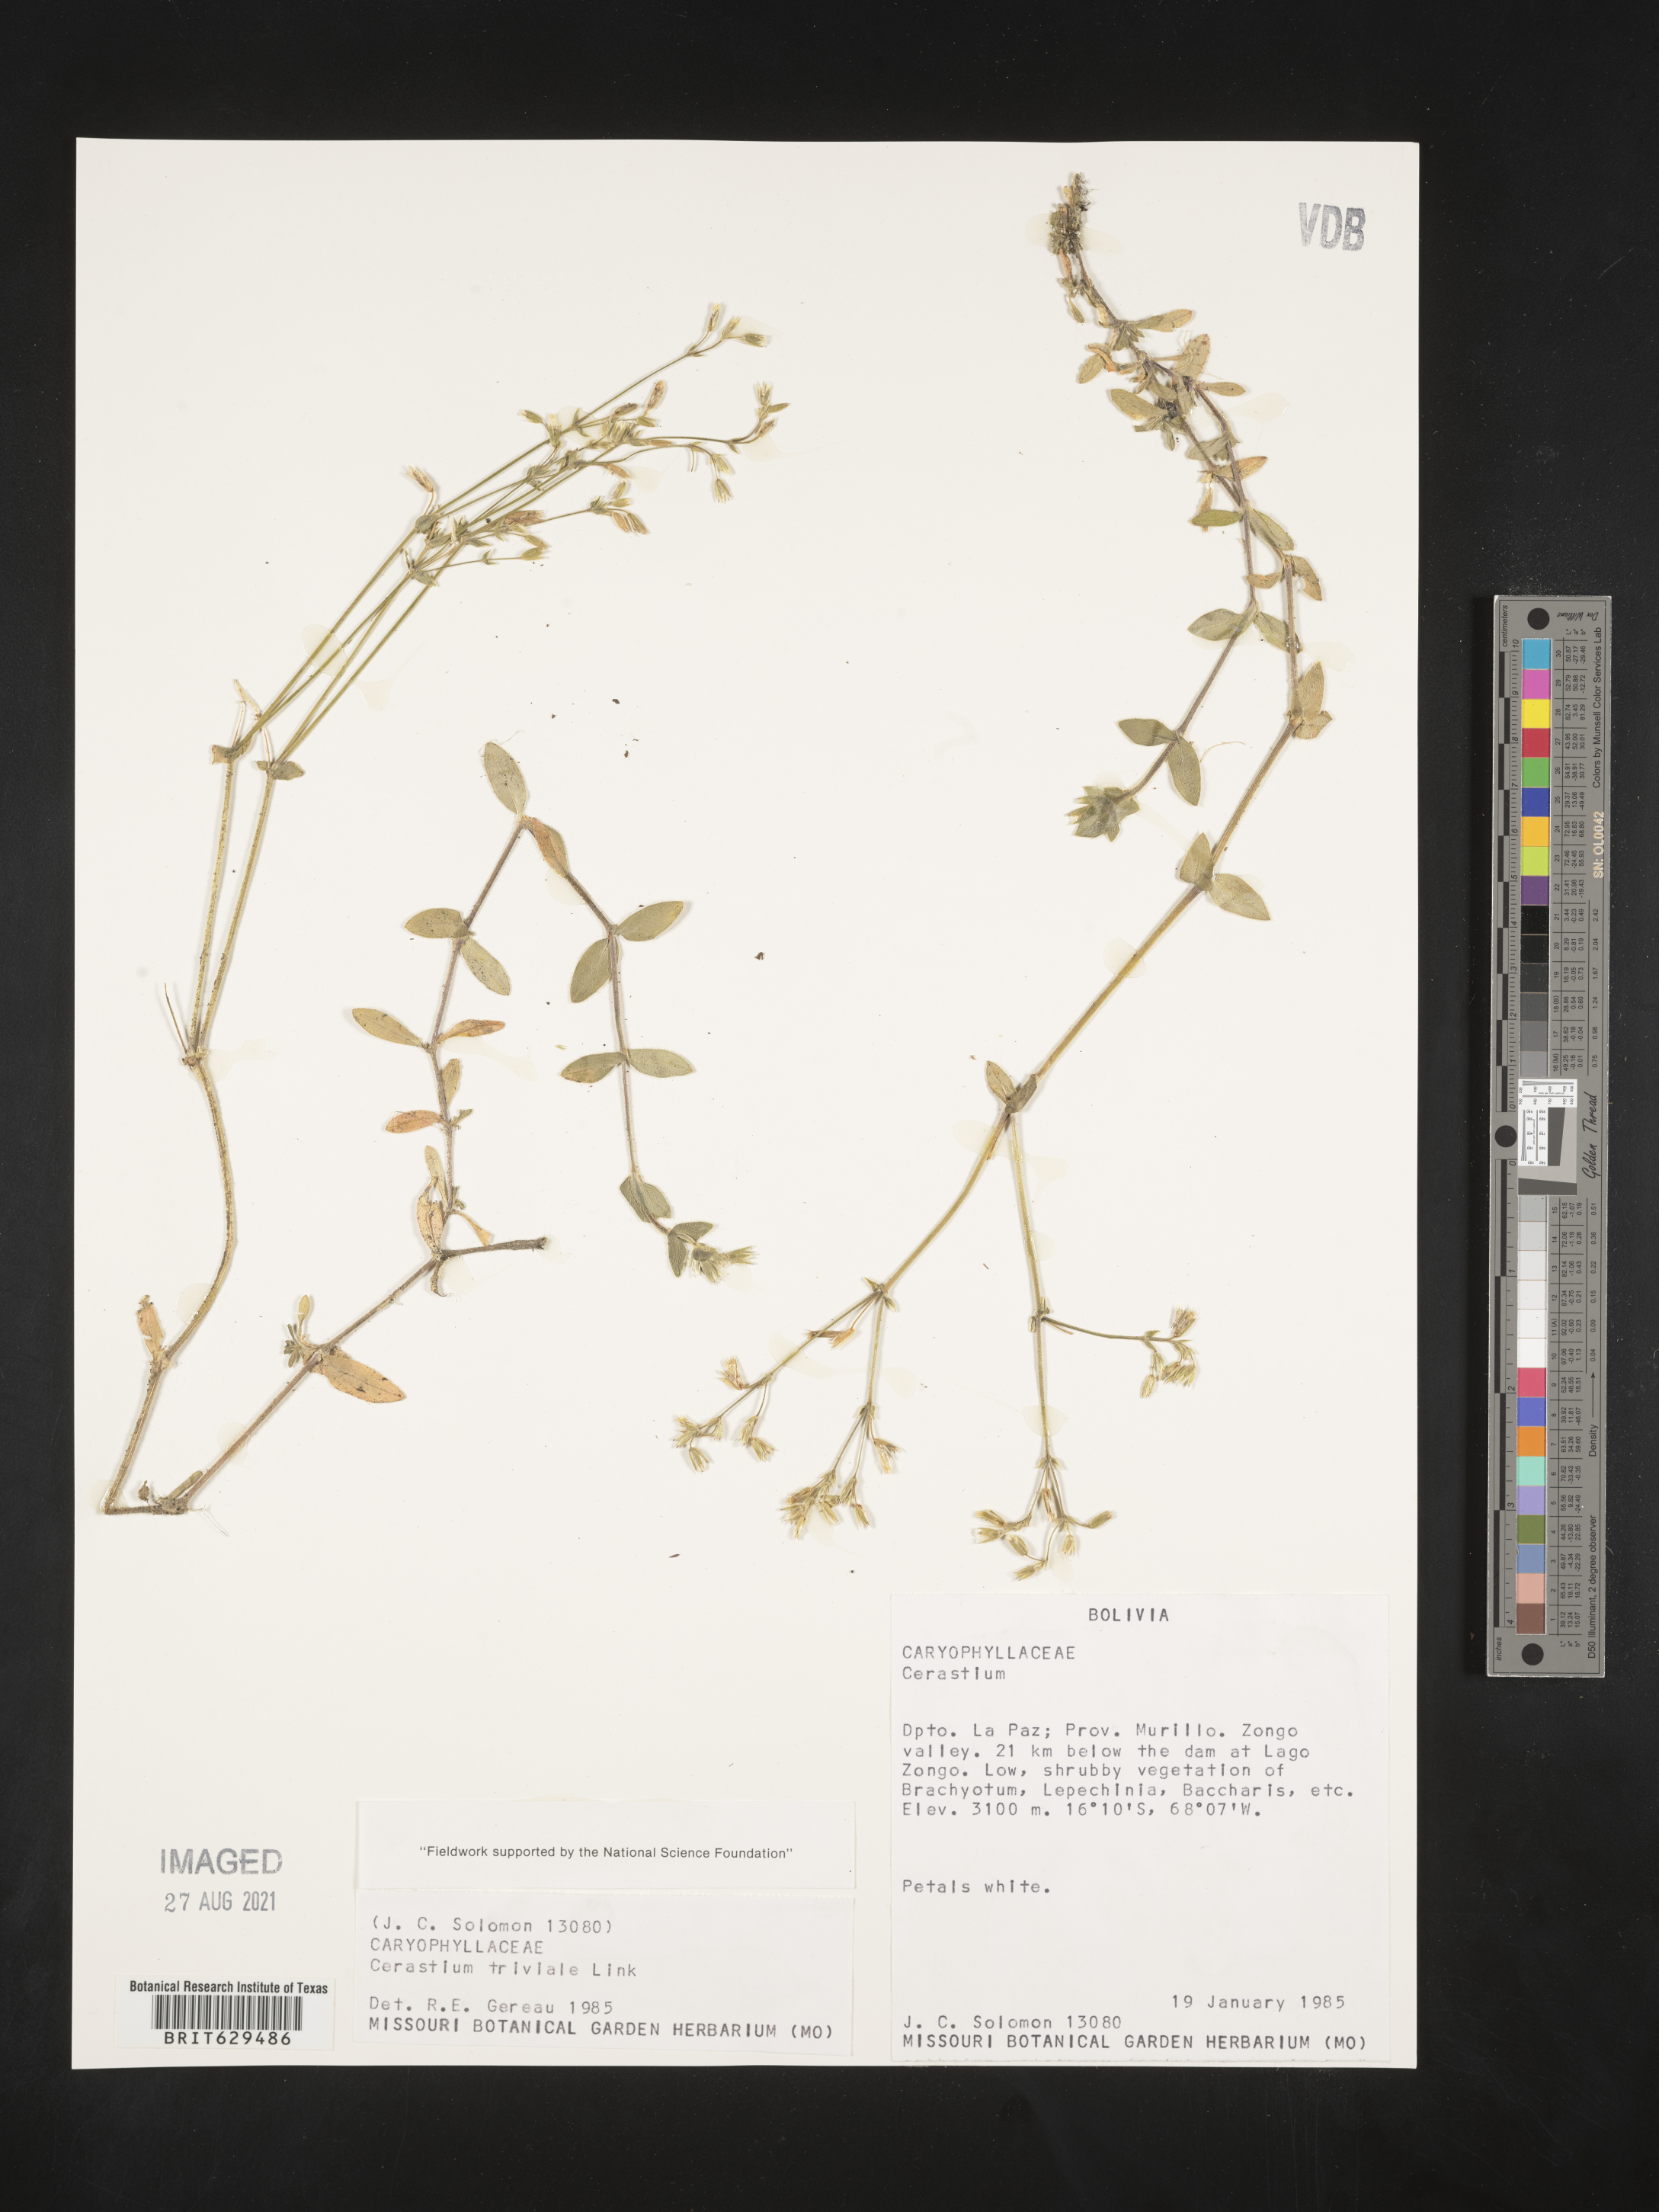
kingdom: Plantae
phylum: Tracheophyta
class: Magnoliopsida
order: Caryophyllales
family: Caryophyllaceae
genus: Cerastium
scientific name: Cerastium glomeratum
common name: Sticky chickweed
